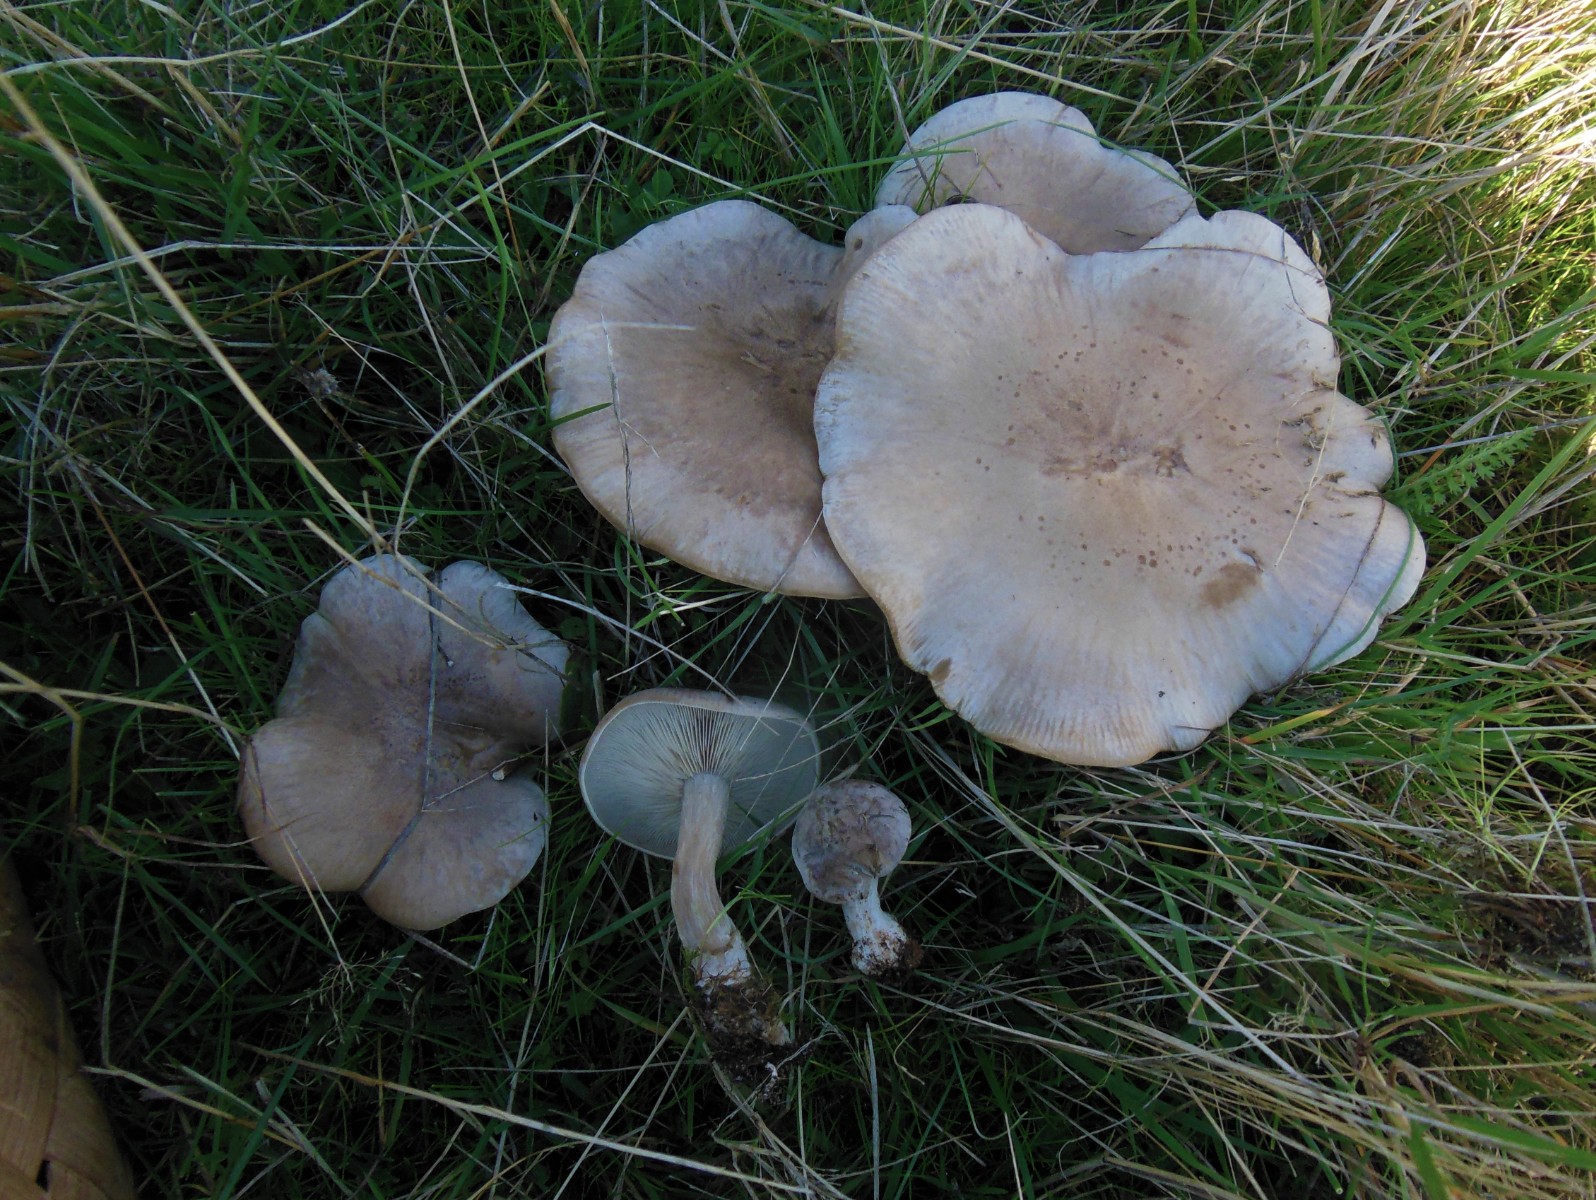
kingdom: Fungi
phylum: Basidiomycota
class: Agaricomycetes
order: Agaricales
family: Tricholomataceae
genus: Lepista
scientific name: Lepista panaeolus
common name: marmoreret hekseringshat
